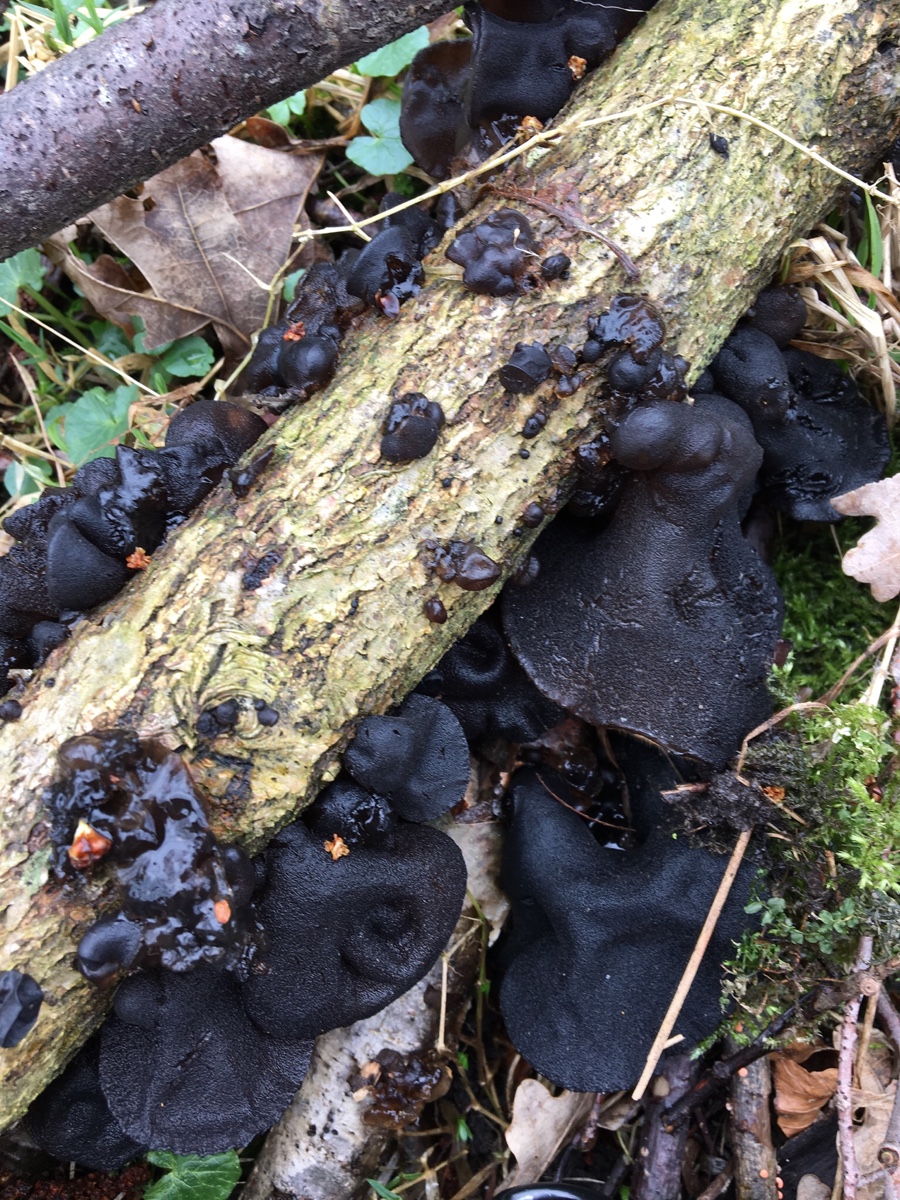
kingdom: Fungi
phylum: Basidiomycota
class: Agaricomycetes
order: Auriculariales
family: Auriculariaceae
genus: Exidia
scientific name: Exidia glandulosa
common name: ege-bævretop
